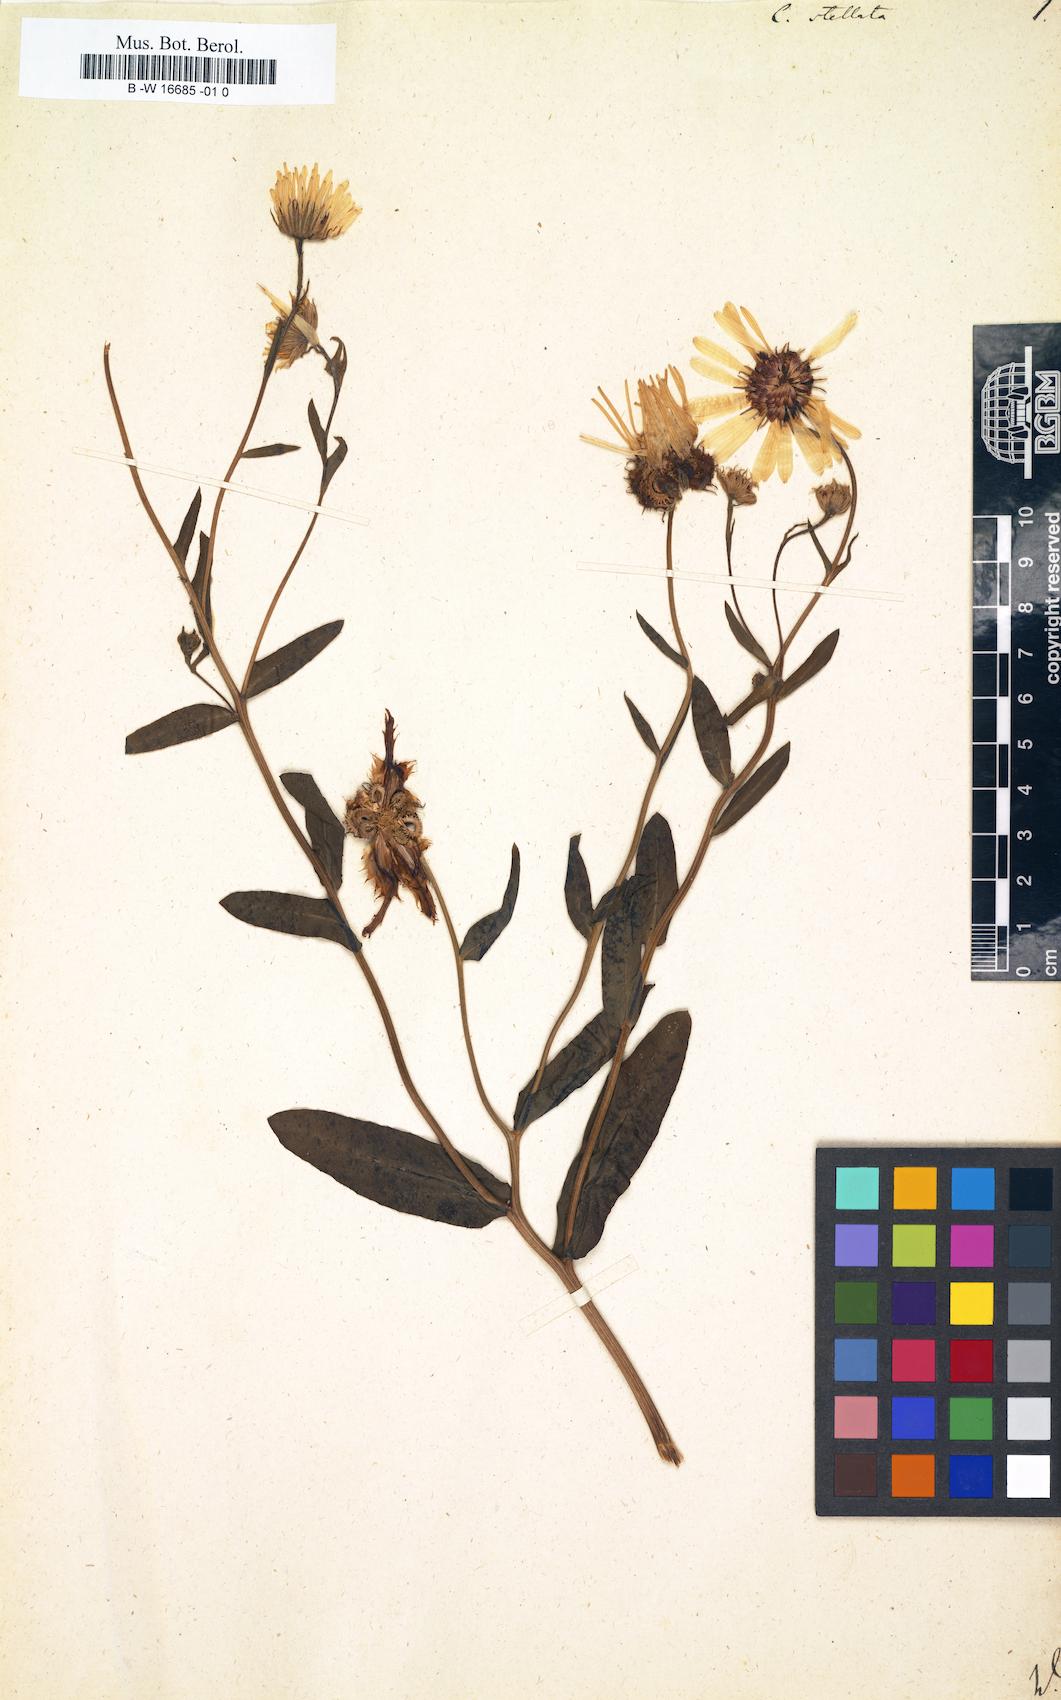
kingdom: Plantae
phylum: Tracheophyta
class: Magnoliopsida
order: Asterales
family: Asteraceae
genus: Calendula
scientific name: Calendula stellata
